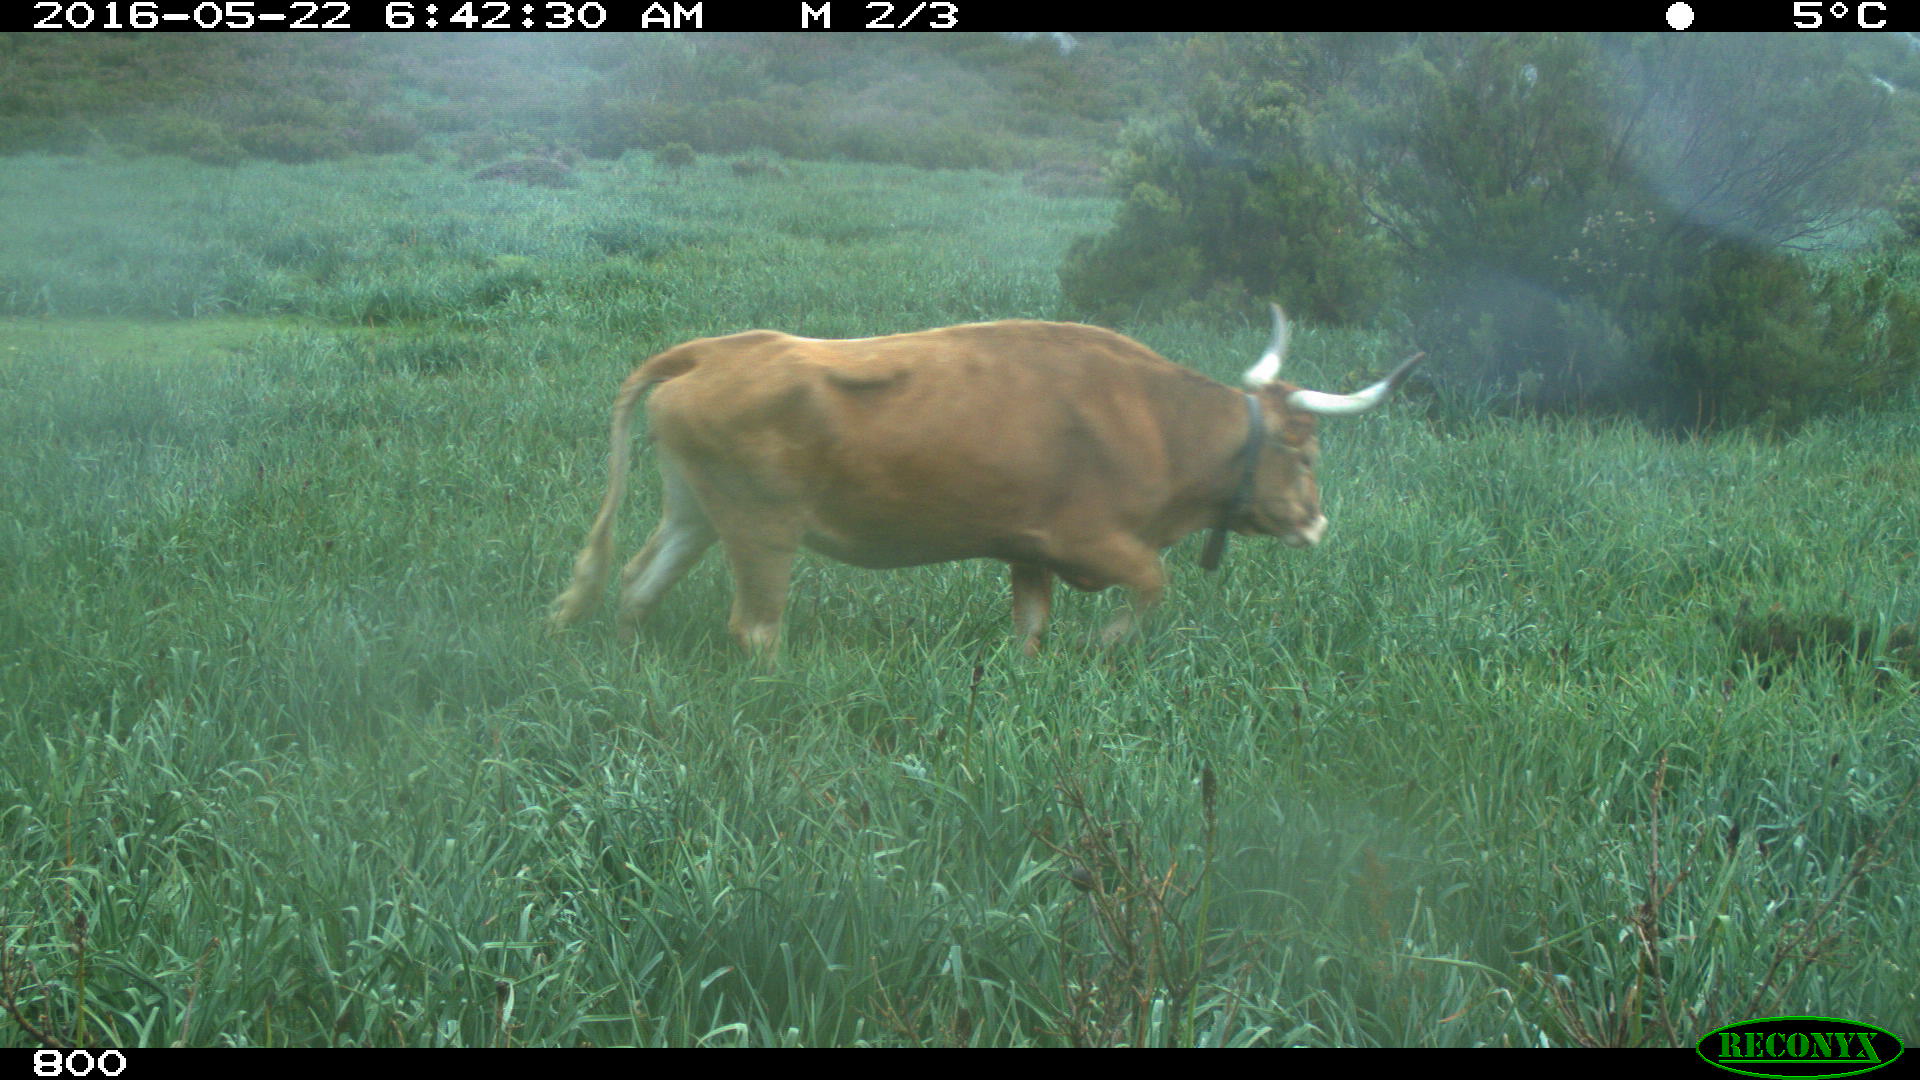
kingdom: Animalia
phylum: Chordata
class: Mammalia
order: Artiodactyla
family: Bovidae
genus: Bos
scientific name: Bos taurus
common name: Domesticated cattle
